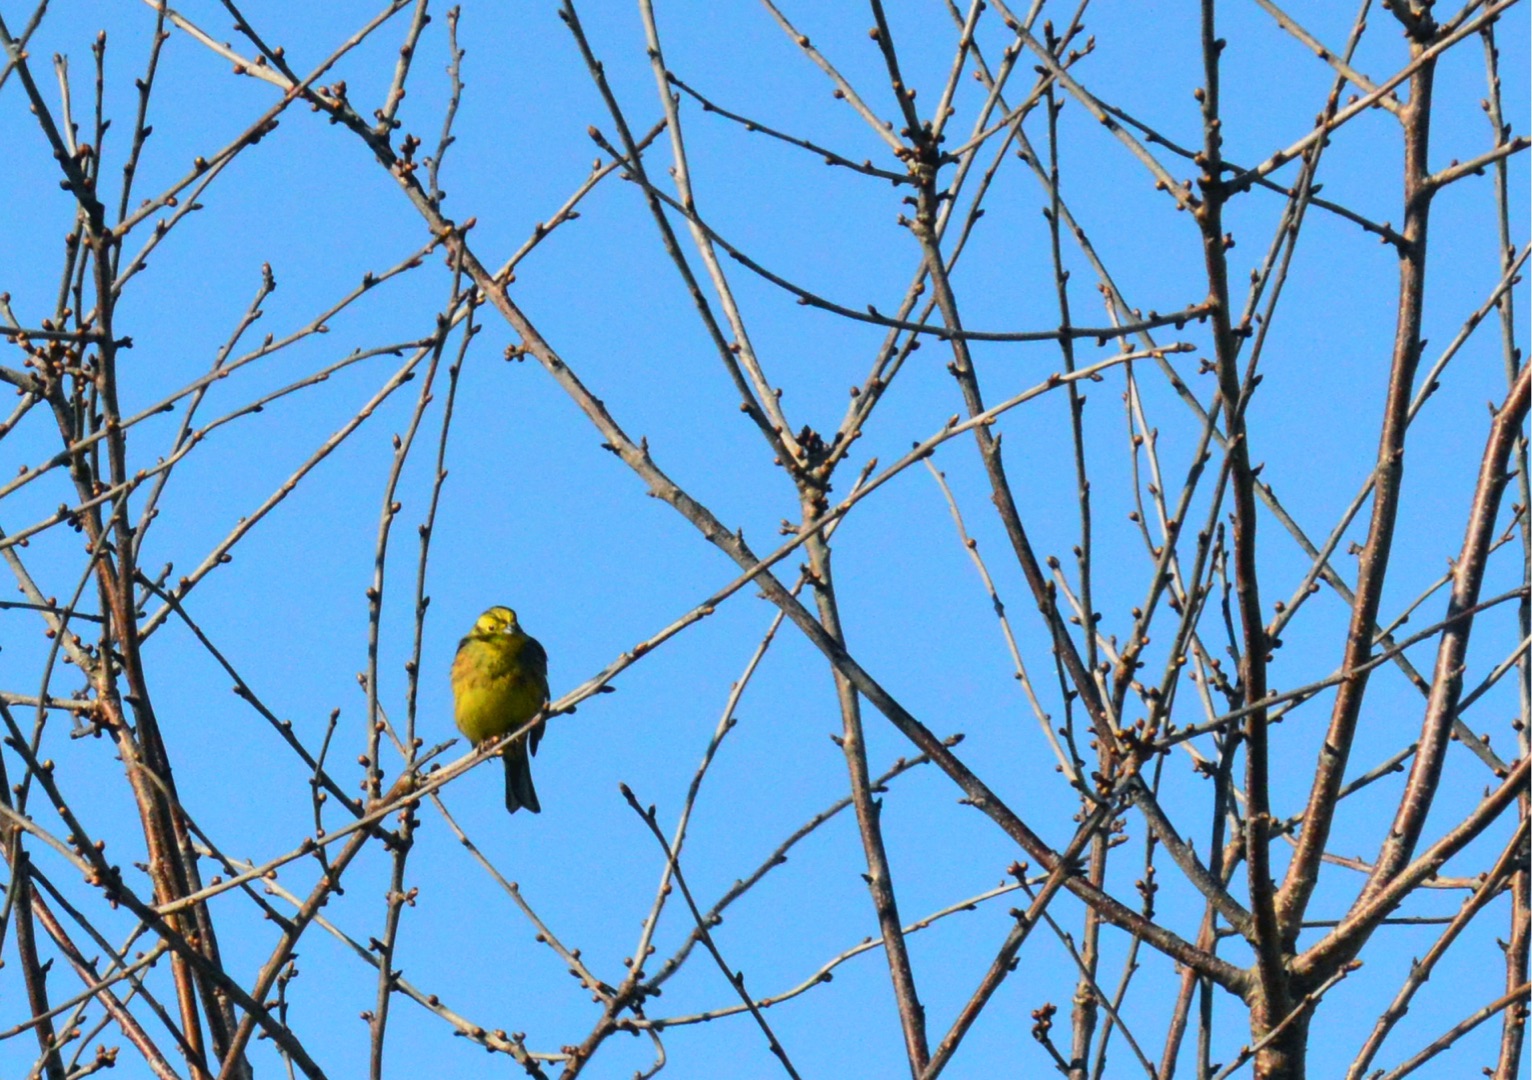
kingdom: Animalia
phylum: Chordata
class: Aves
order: Passeriformes
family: Emberizidae
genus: Emberiza
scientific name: Emberiza citrinella
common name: Gulspurv
